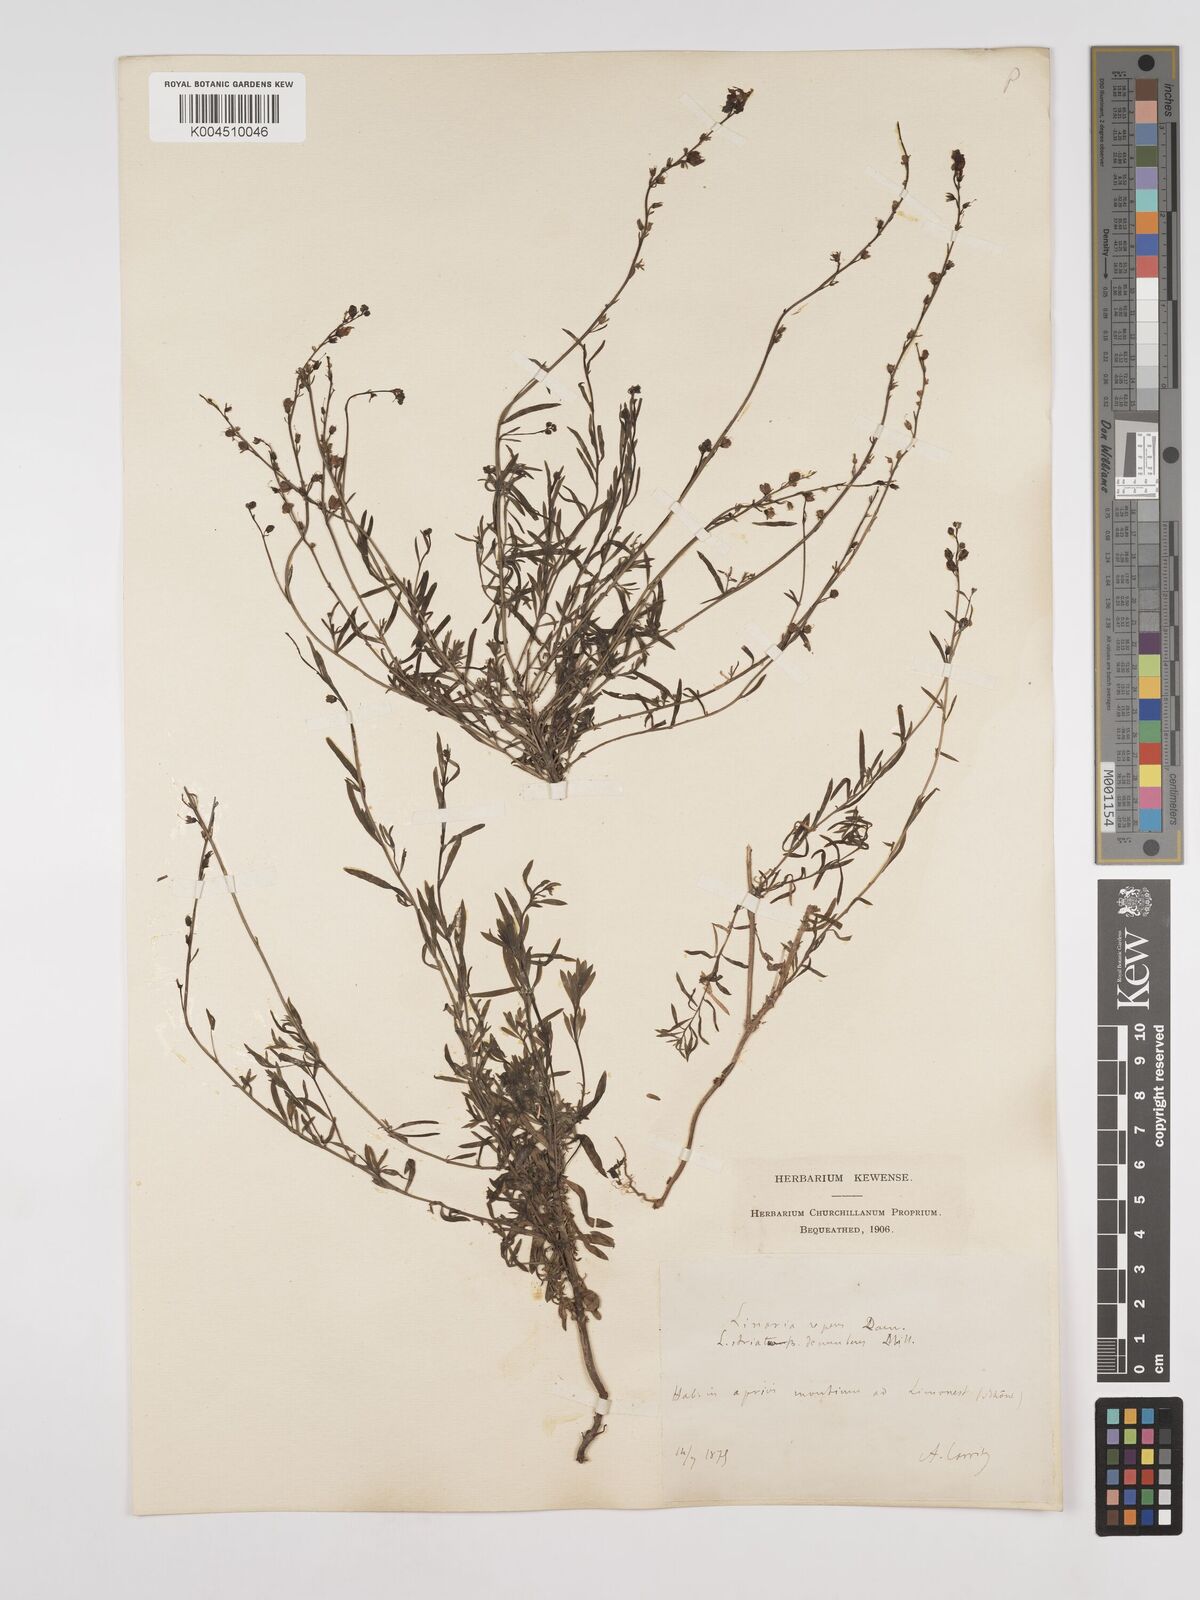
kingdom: Plantae
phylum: Tracheophyta
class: Magnoliopsida
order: Lamiales
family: Plantaginaceae
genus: Linaria
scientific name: Linaria repens
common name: Pale toadflax
